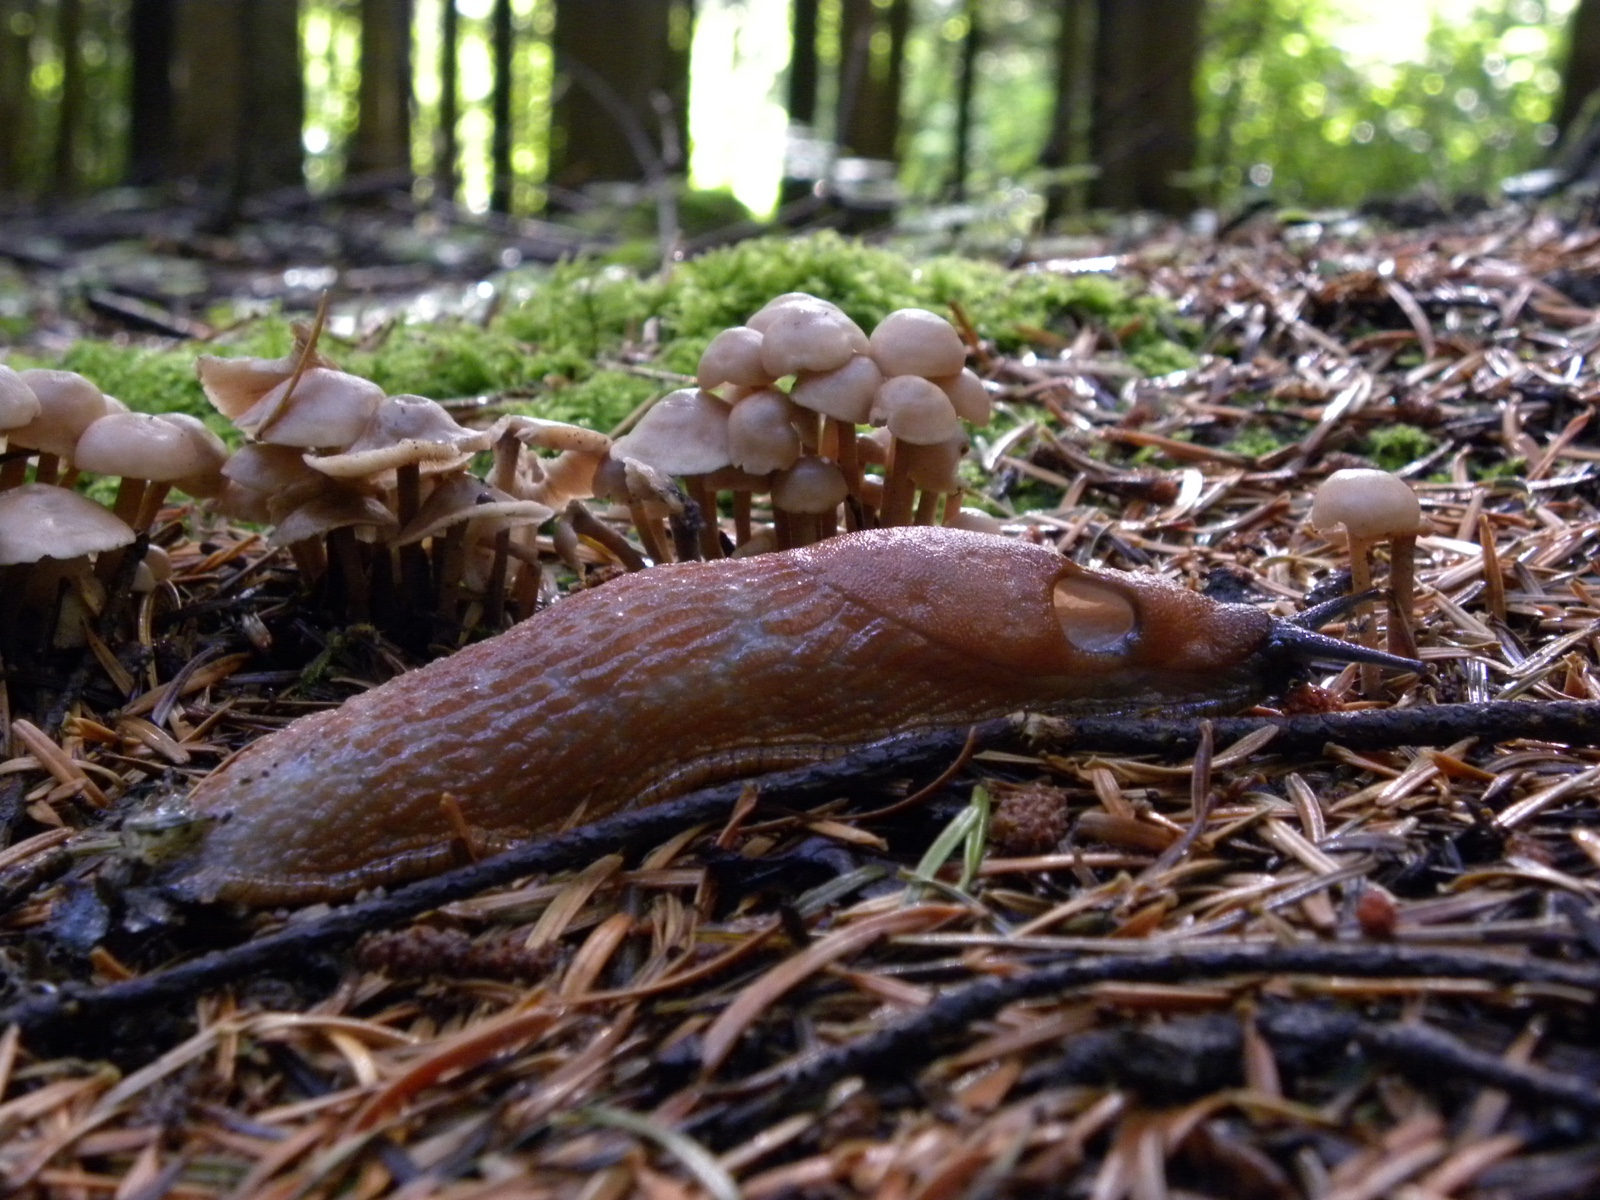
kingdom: Fungi
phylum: Basidiomycota
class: Agaricomycetes
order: Agaricales
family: Omphalotaceae
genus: Collybiopsis
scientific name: Collybiopsis confluens
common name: knippe-fladhat
